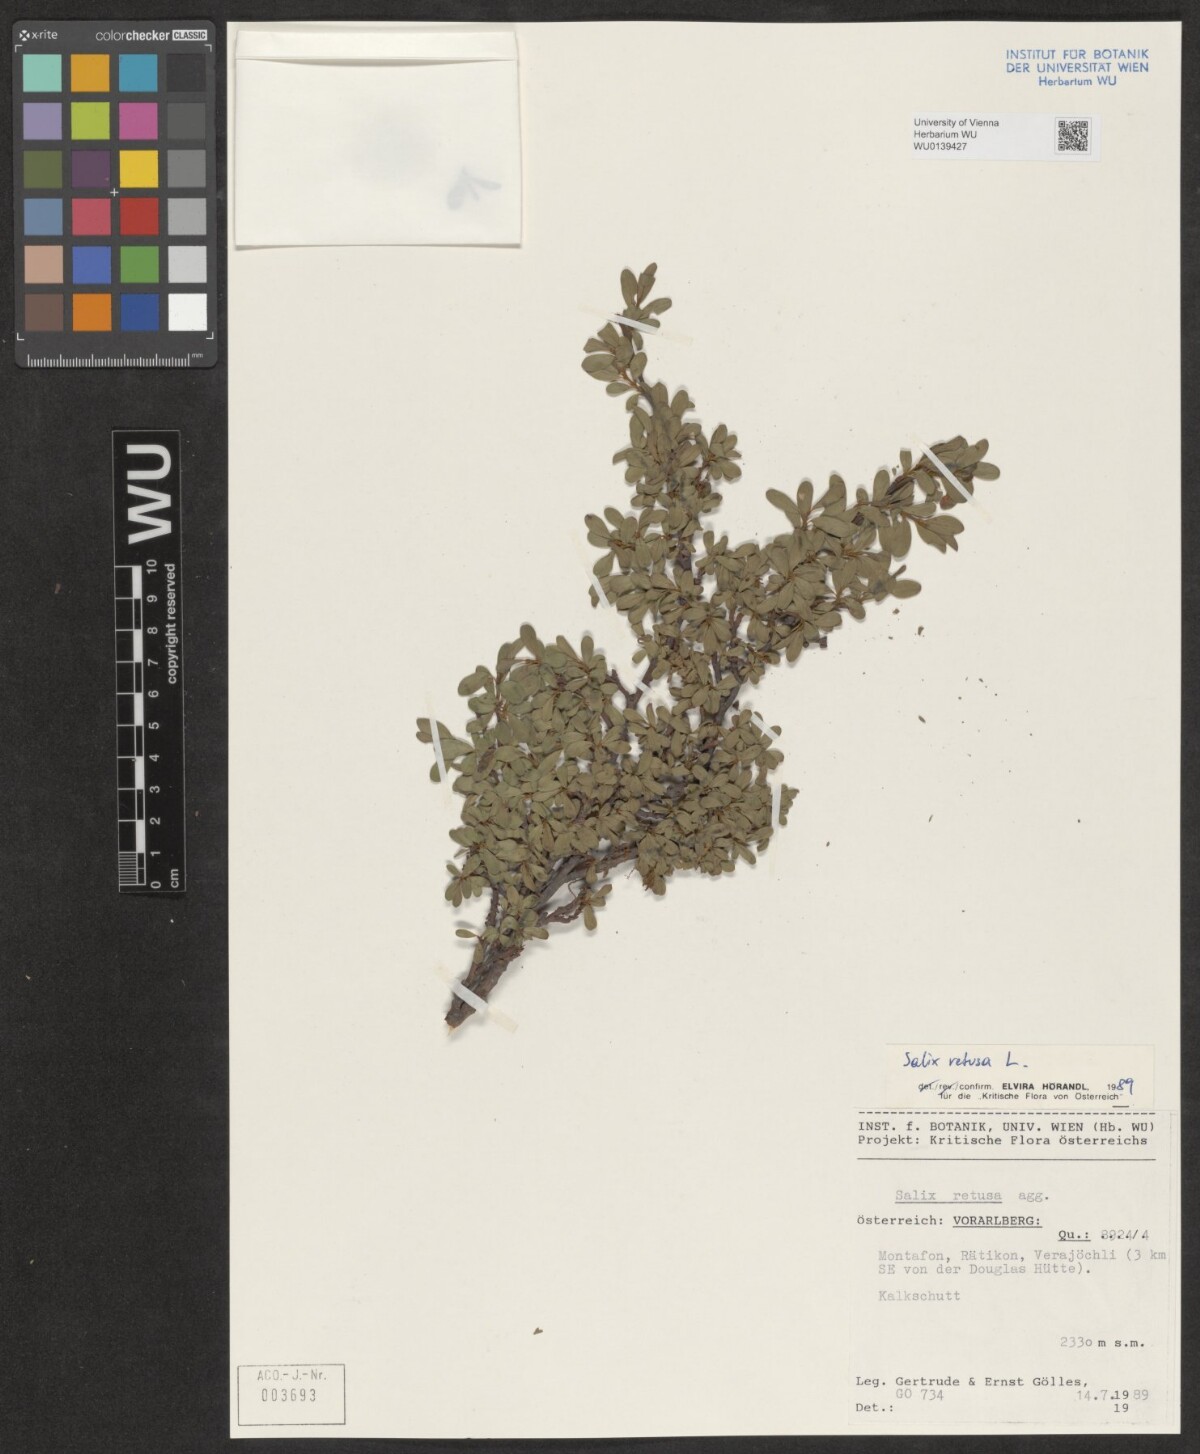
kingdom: Plantae
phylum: Tracheophyta
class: Magnoliopsida
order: Malpighiales
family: Salicaceae
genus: Salix
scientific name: Salix retusa
